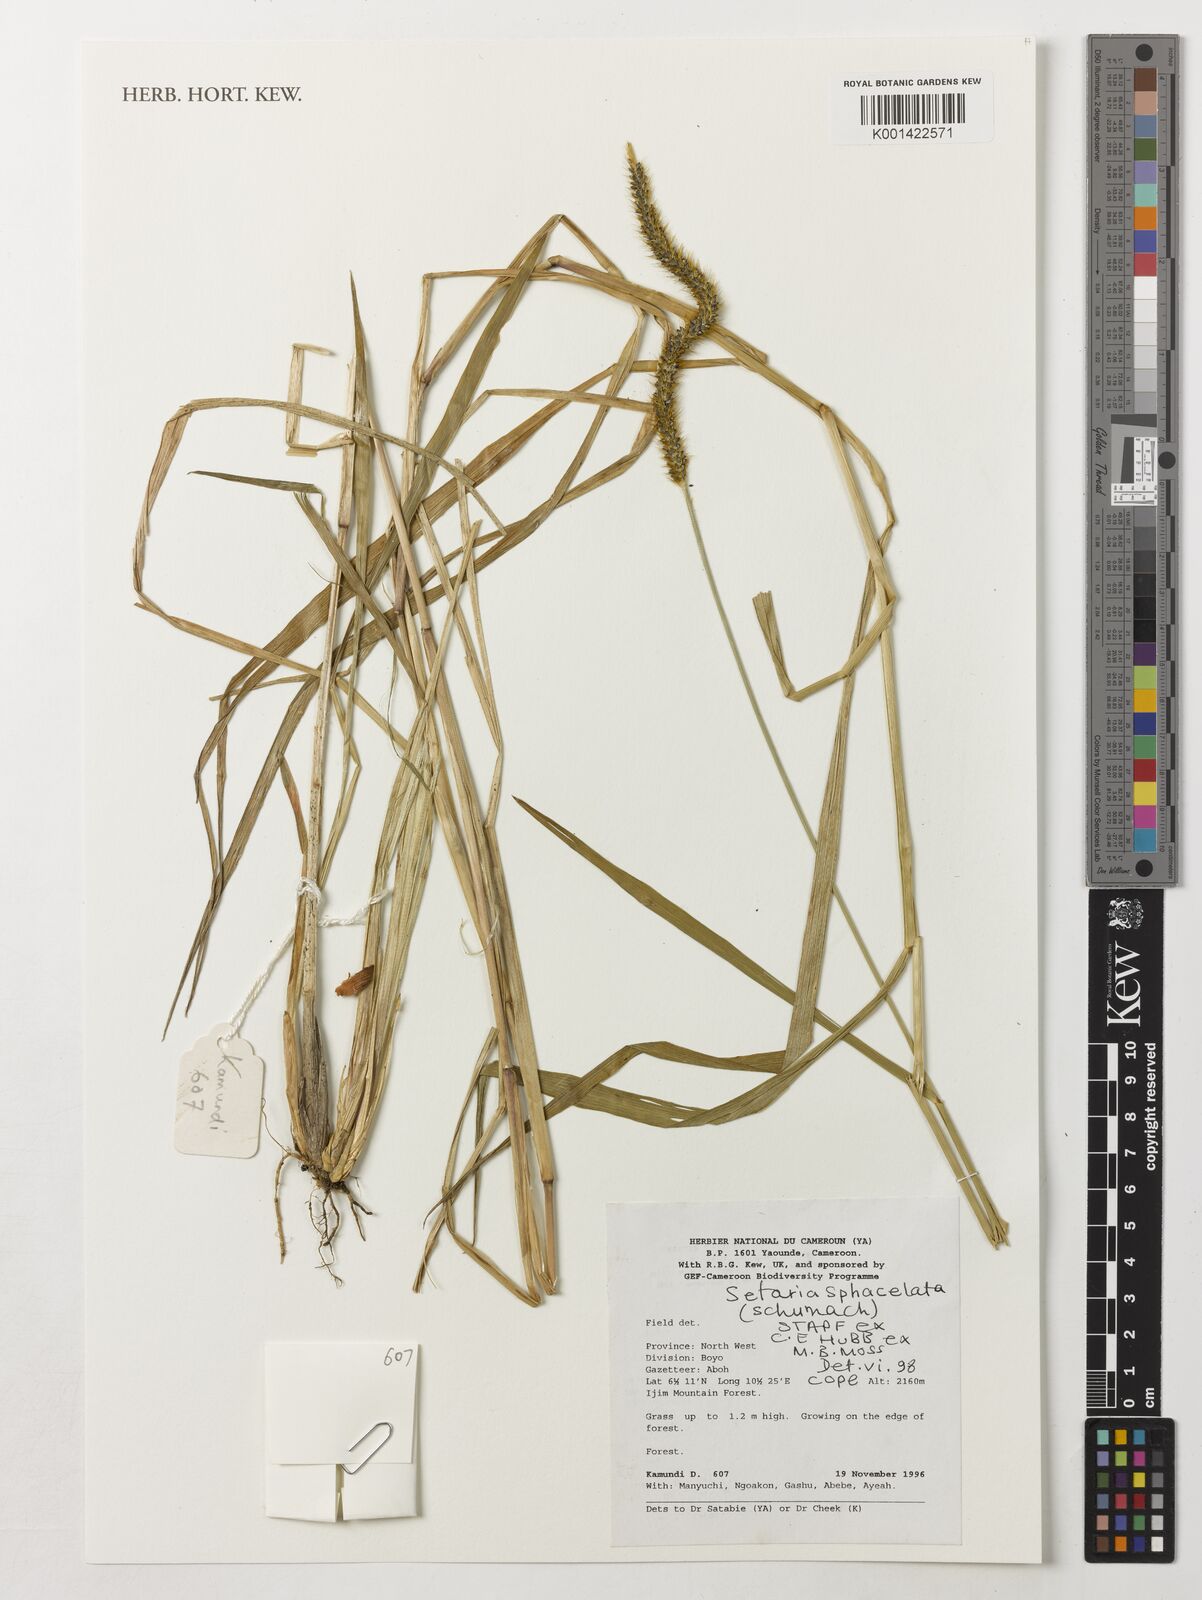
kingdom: Plantae
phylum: Tracheophyta
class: Liliopsida
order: Poales
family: Poaceae
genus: Setaria
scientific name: Setaria sphacelata
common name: African bristlegrass
